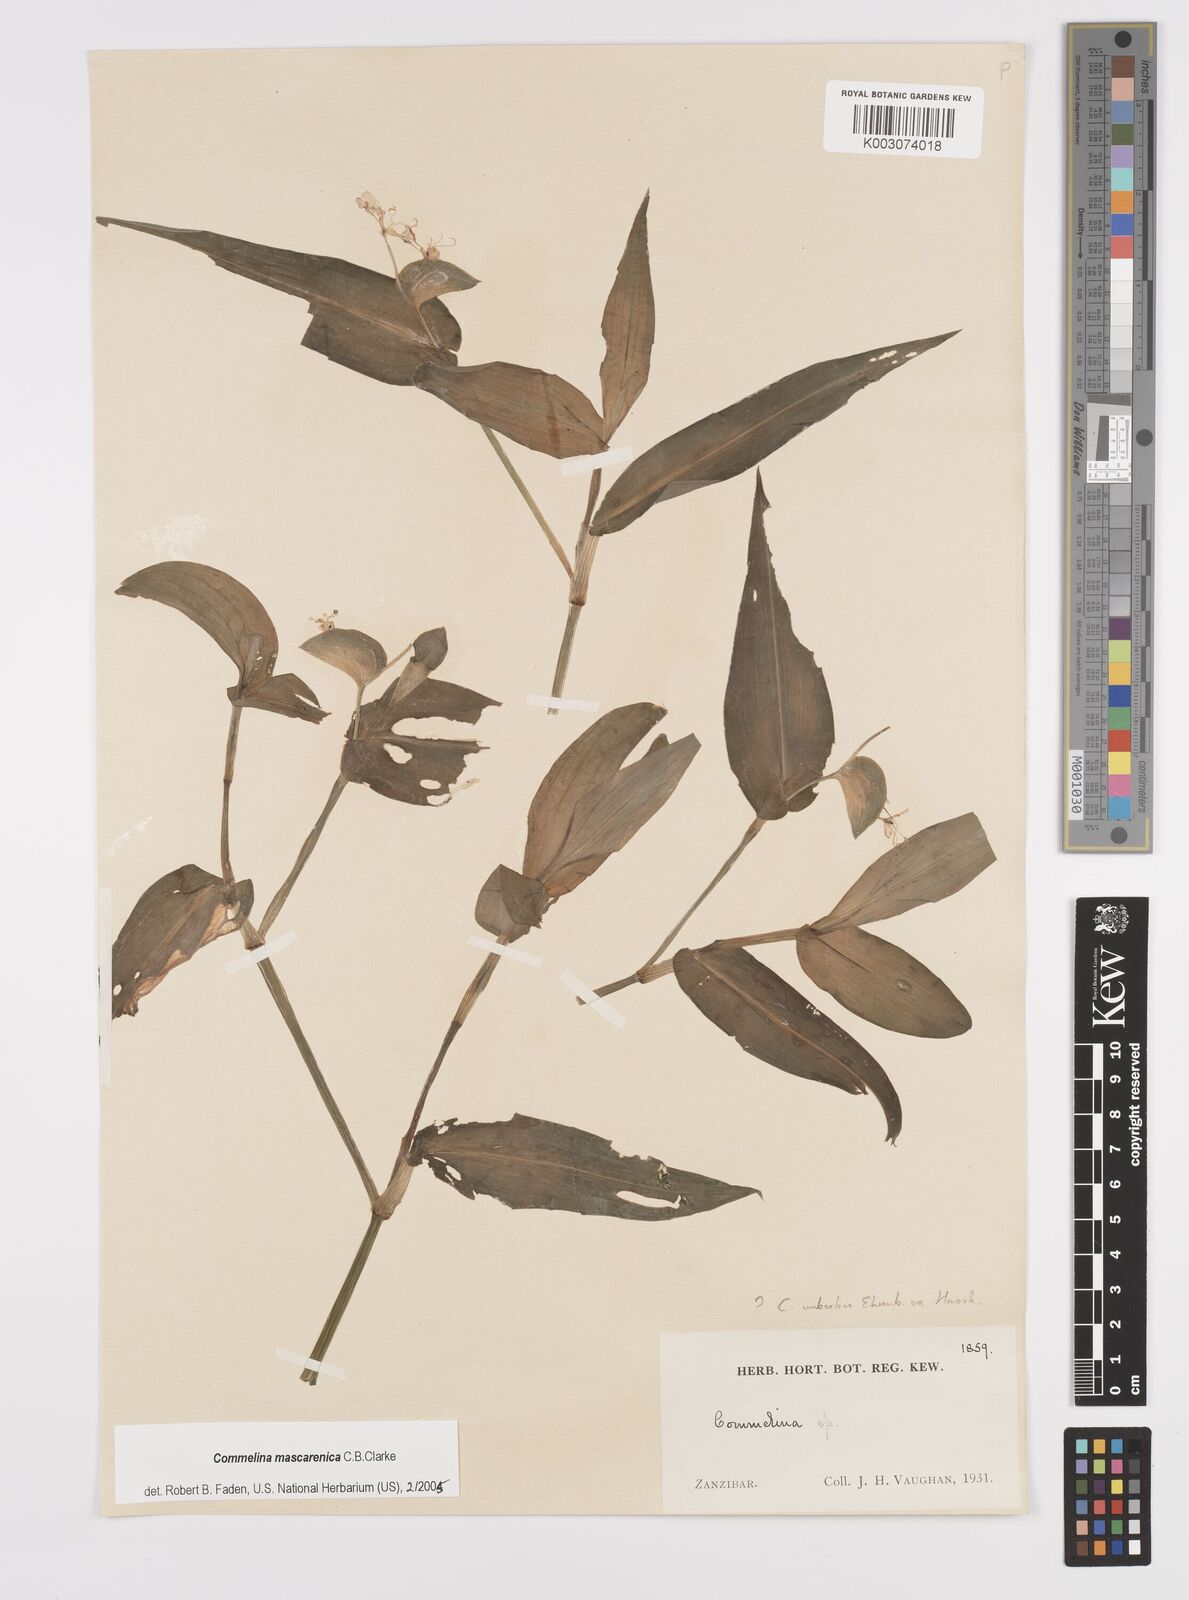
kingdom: Plantae
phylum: Tracheophyta
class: Liliopsida
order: Commelinales
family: Commelinaceae
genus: Commelina
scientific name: Commelina mascarenica
